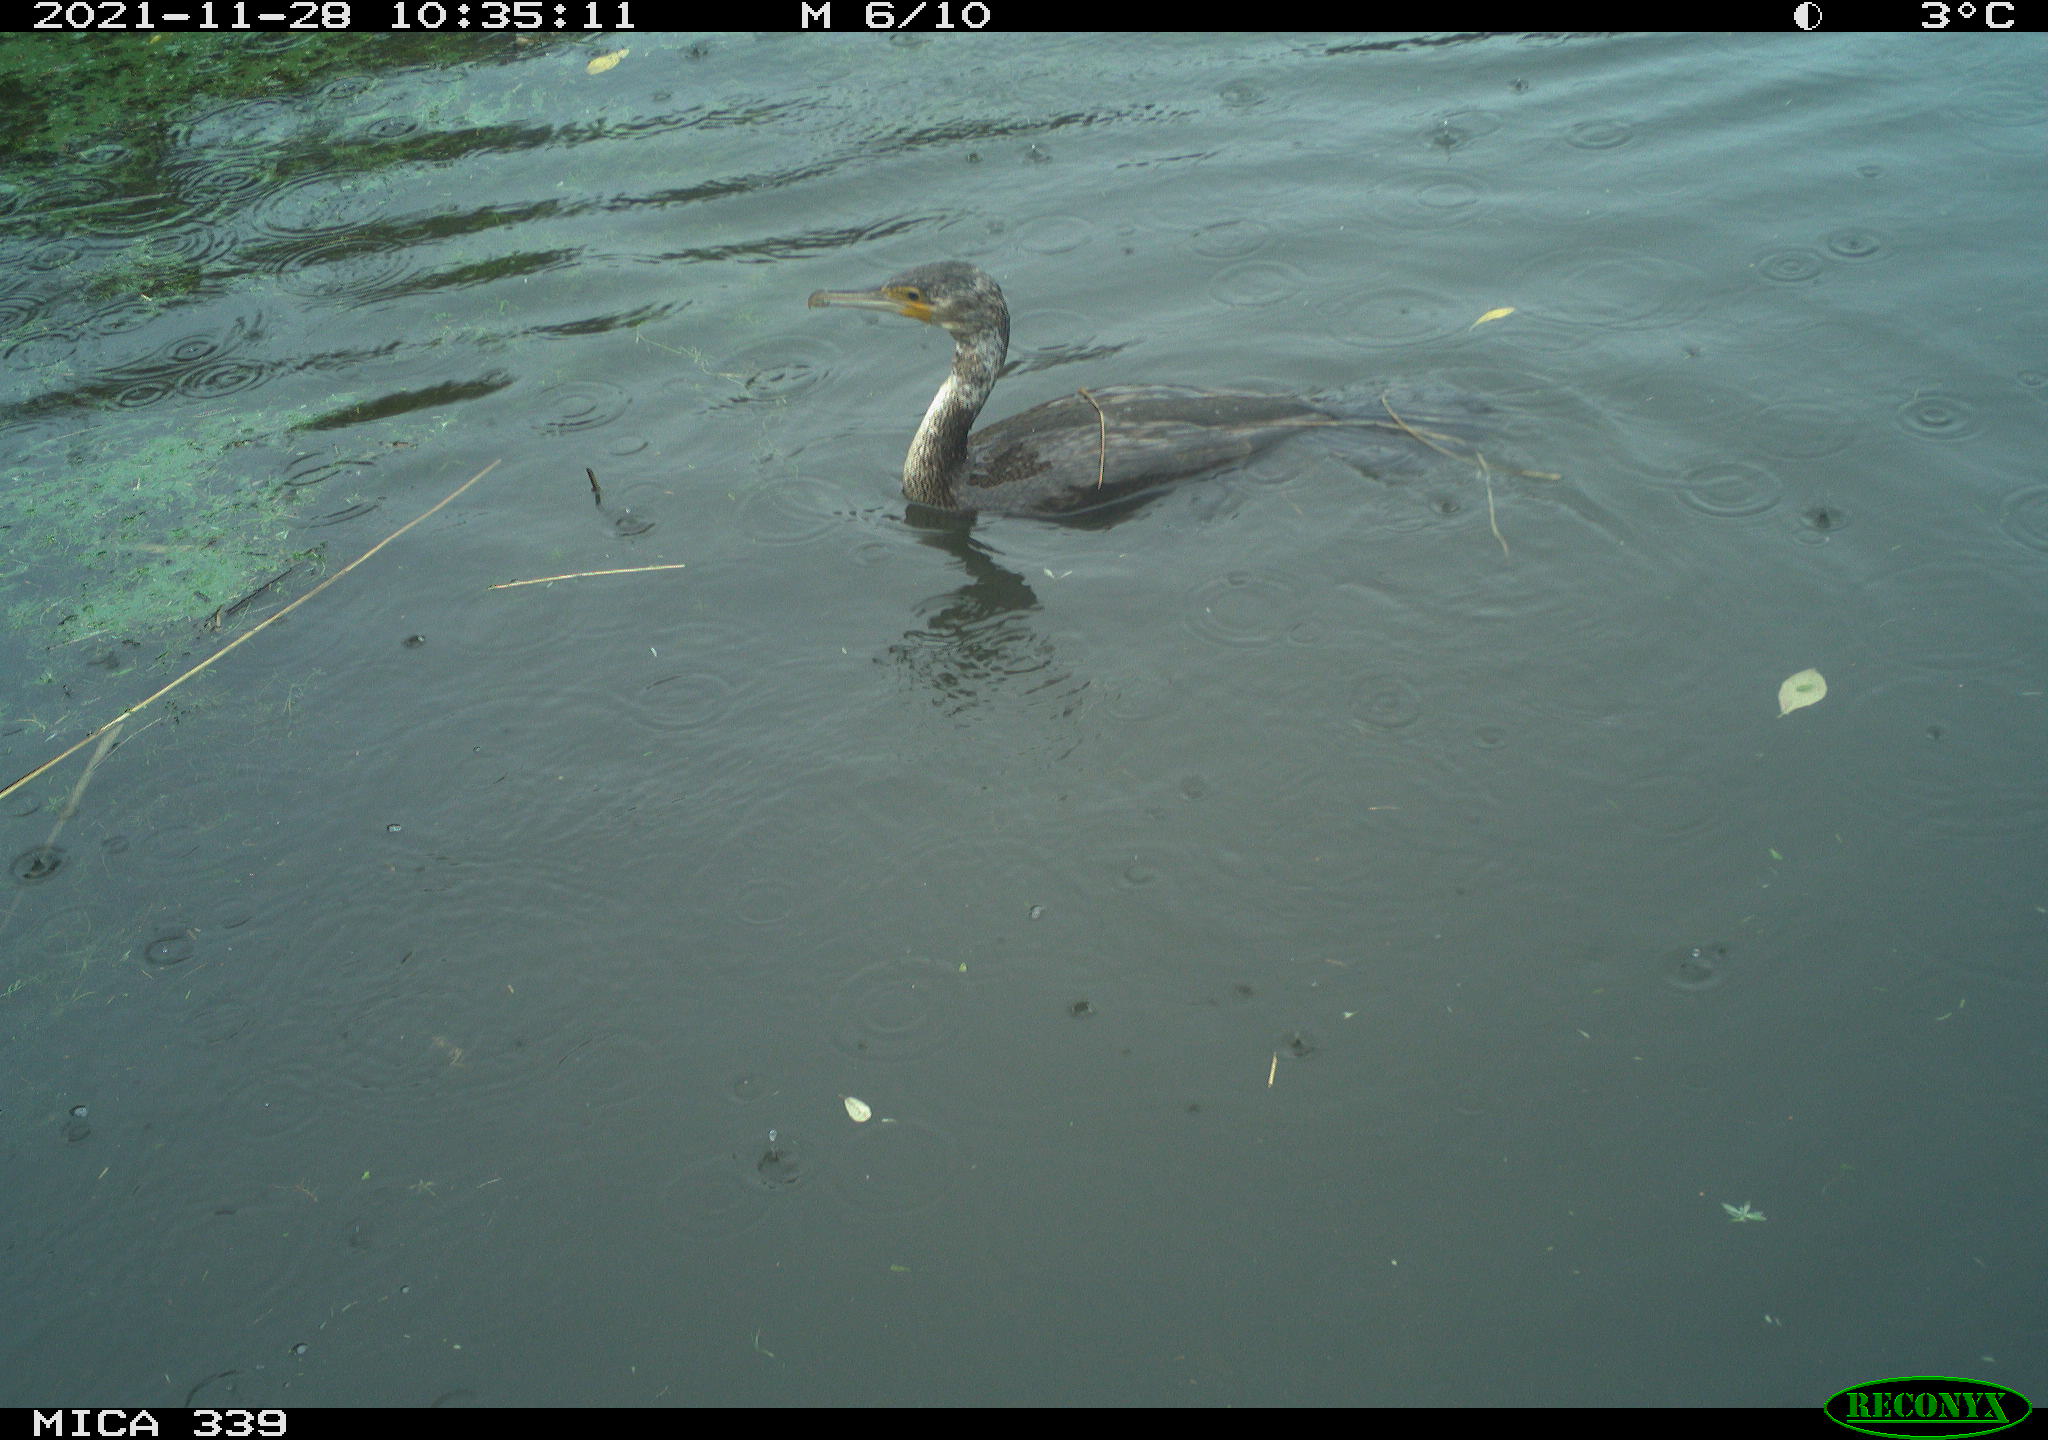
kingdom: Animalia
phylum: Chordata
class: Aves
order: Suliformes
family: Phalacrocoracidae
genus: Phalacrocorax
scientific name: Phalacrocorax carbo
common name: Great cormorant
